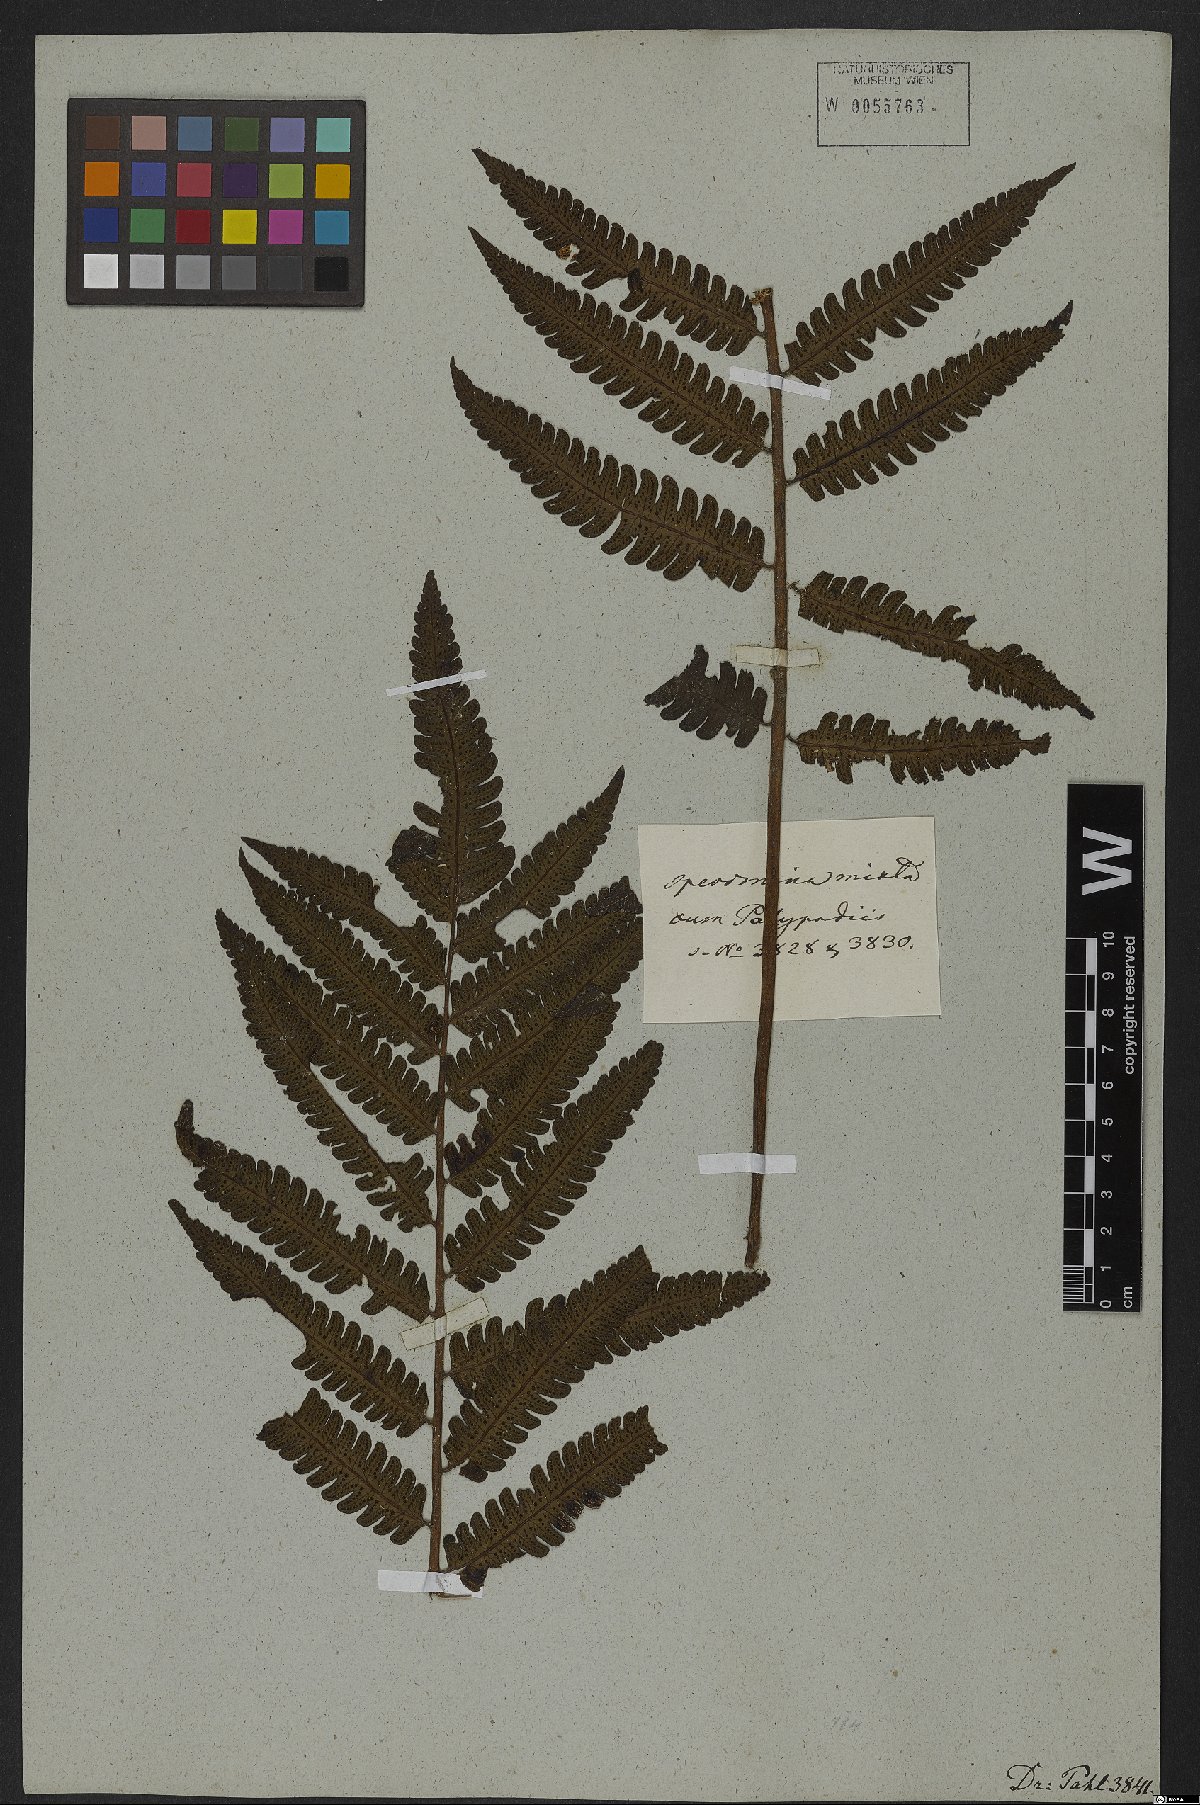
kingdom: Plantae
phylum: Tracheophyta
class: Polypodiopsida
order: Polypodiales
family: Dryopteridaceae
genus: Ctenitis
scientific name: Ctenitis aspidioides
